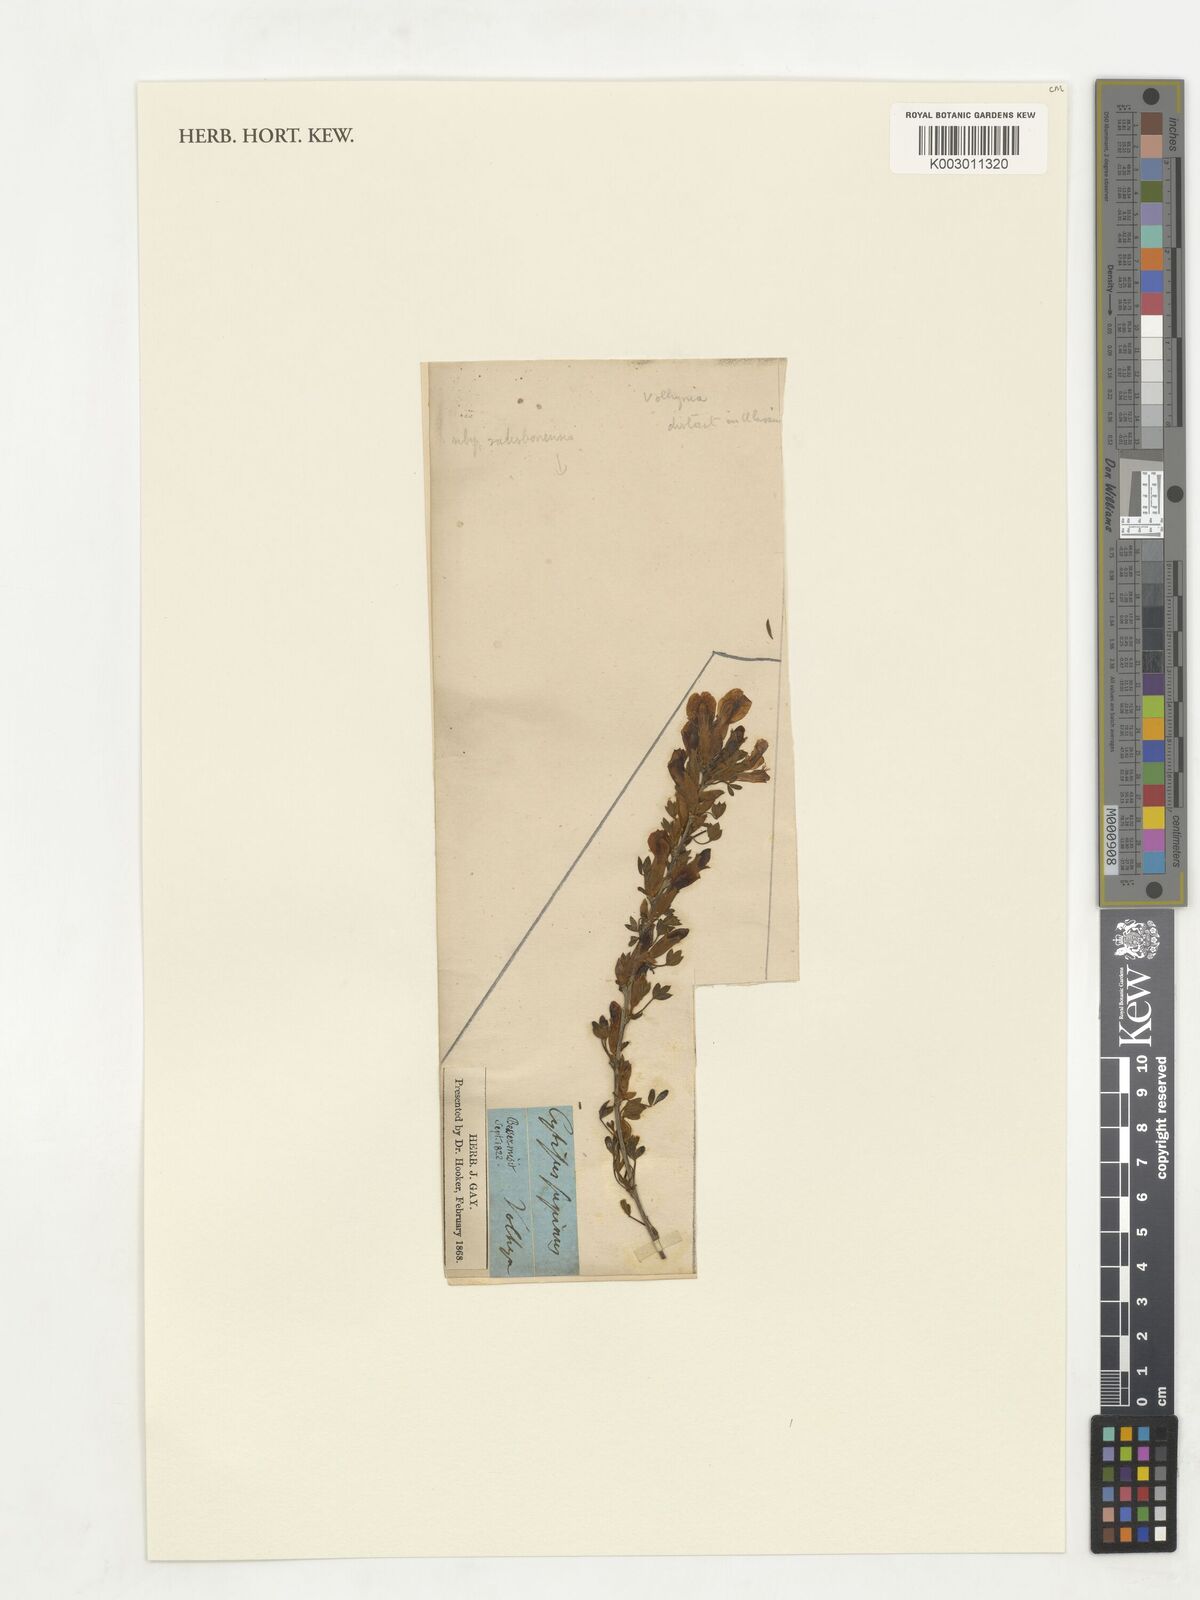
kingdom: Plantae
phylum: Tracheophyta
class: Magnoliopsida
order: Fabales
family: Fabaceae
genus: Chamaecytisus
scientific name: Chamaecytisus supinus
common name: Clustered broom
